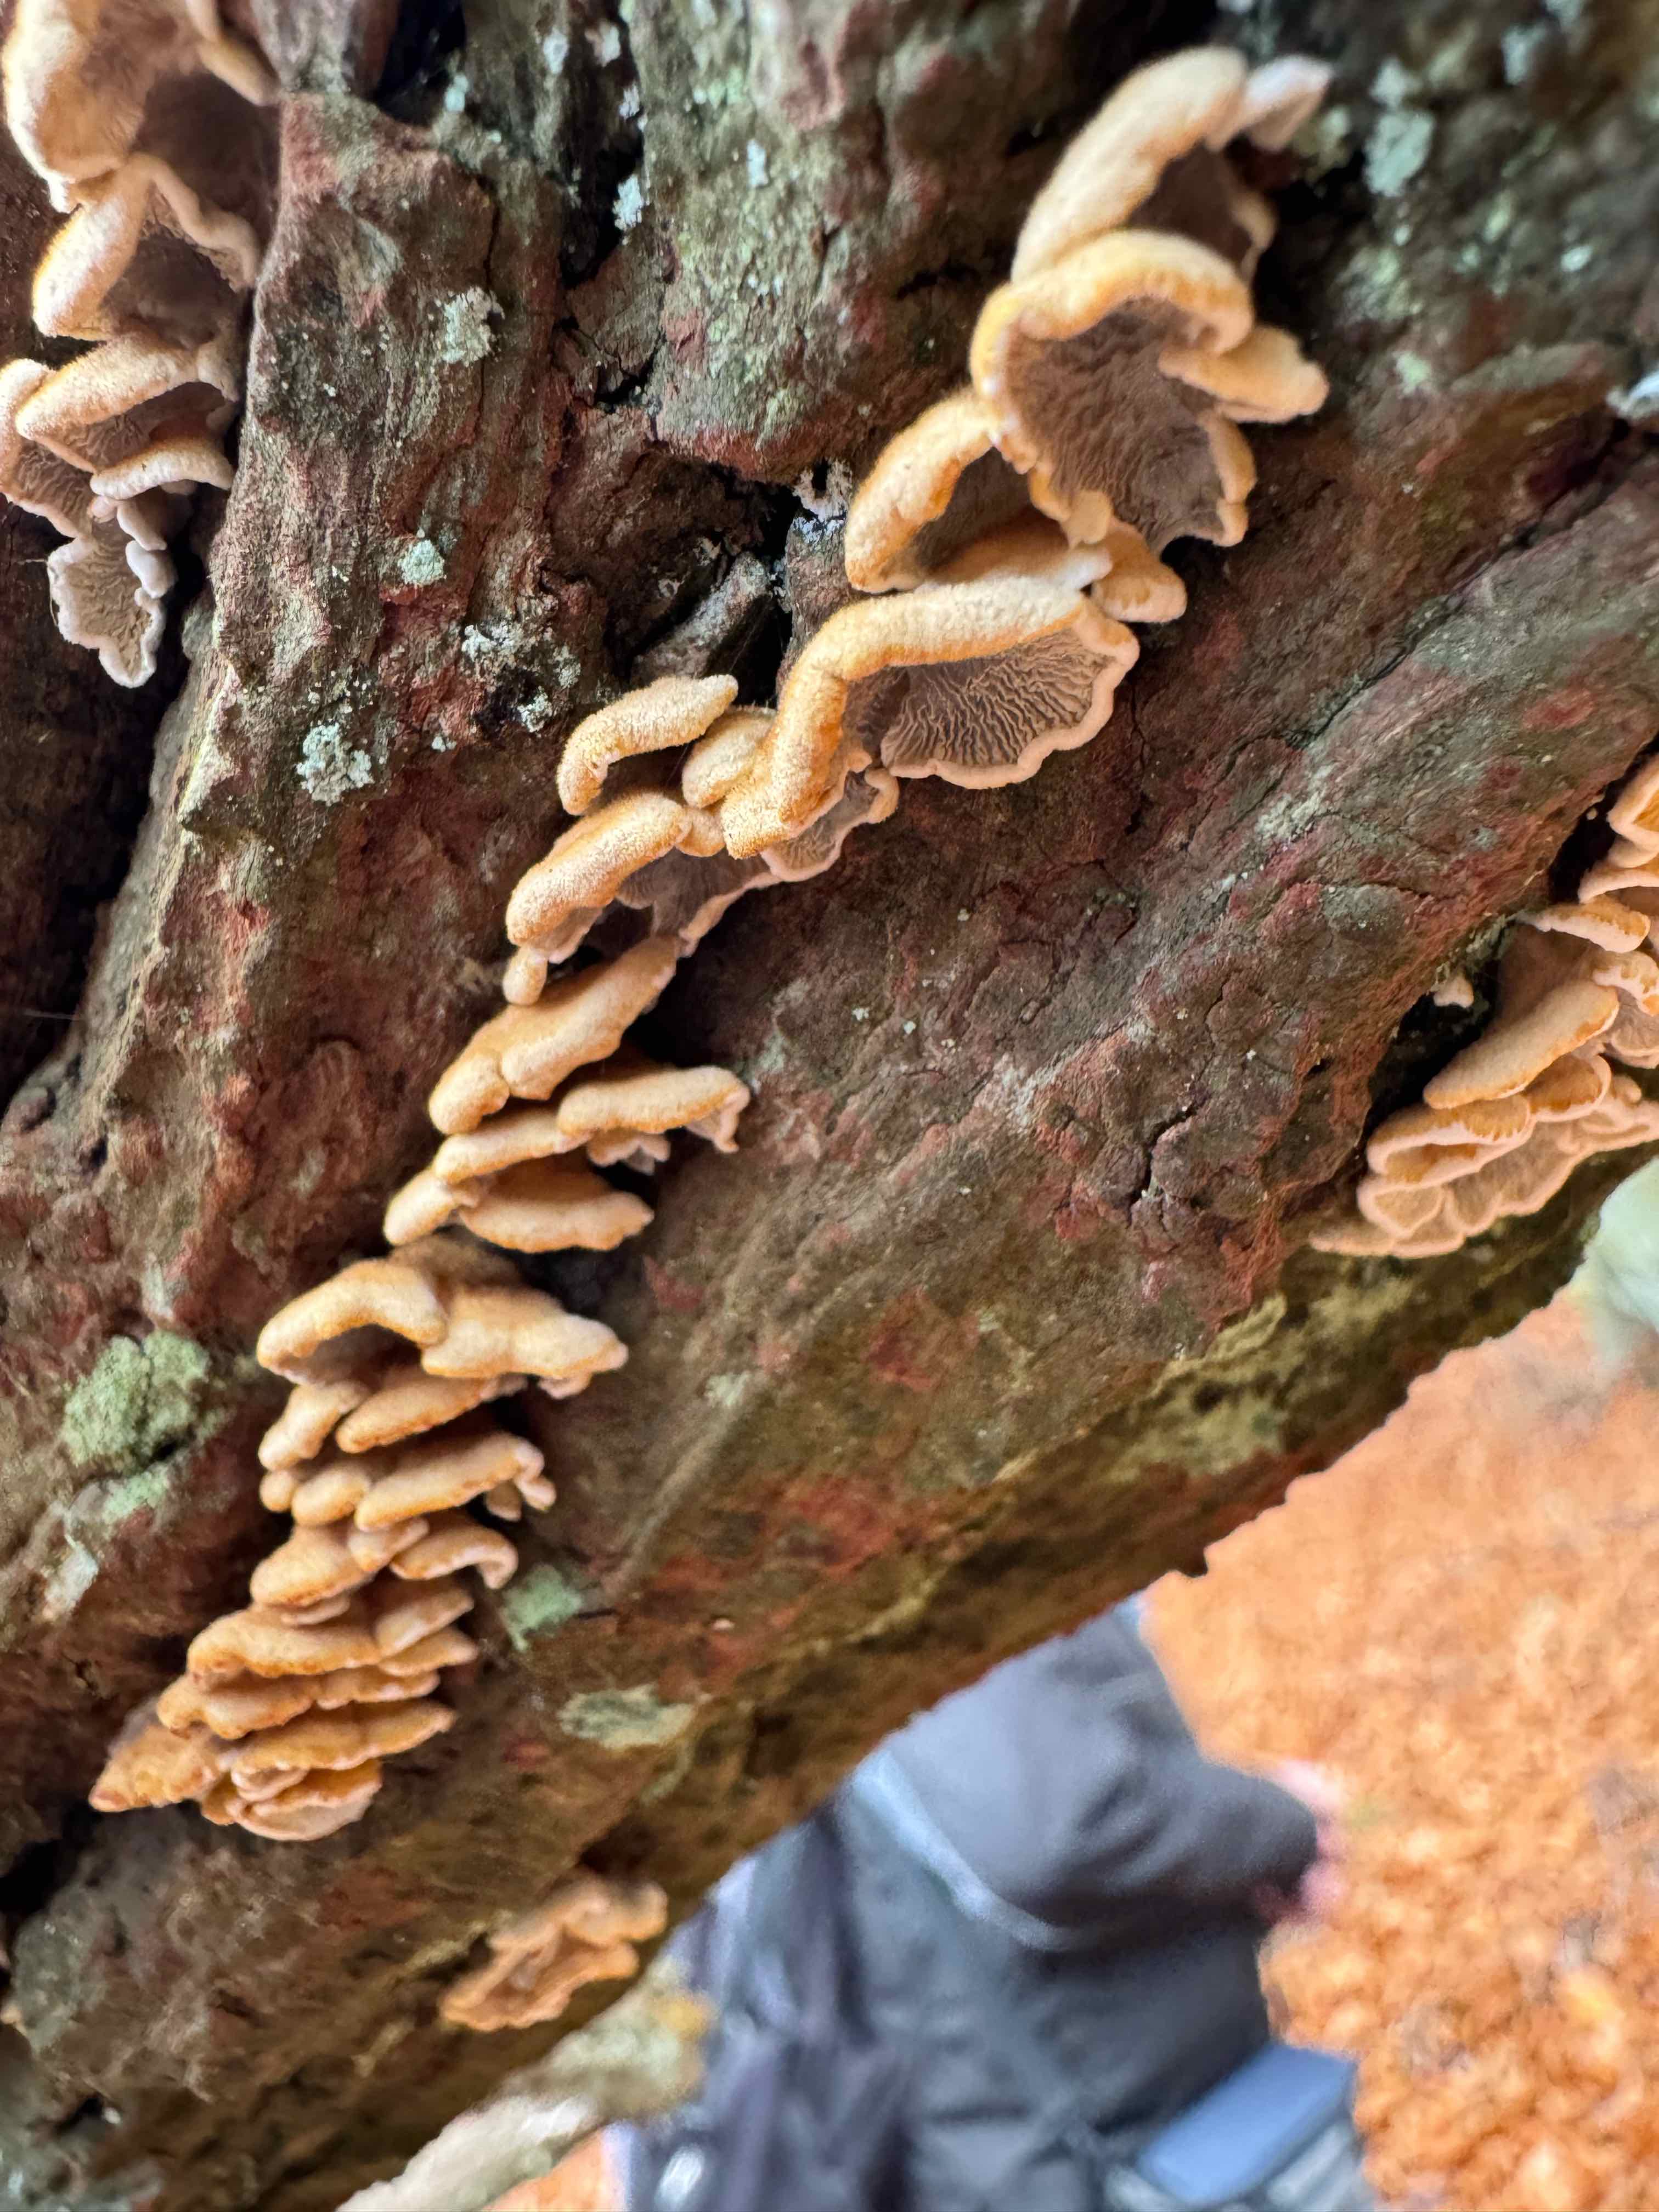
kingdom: Fungi
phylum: Basidiomycota
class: Agaricomycetes
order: Amylocorticiales
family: Amylocorticiaceae
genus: Plicaturopsis
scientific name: Plicaturopsis crispa
